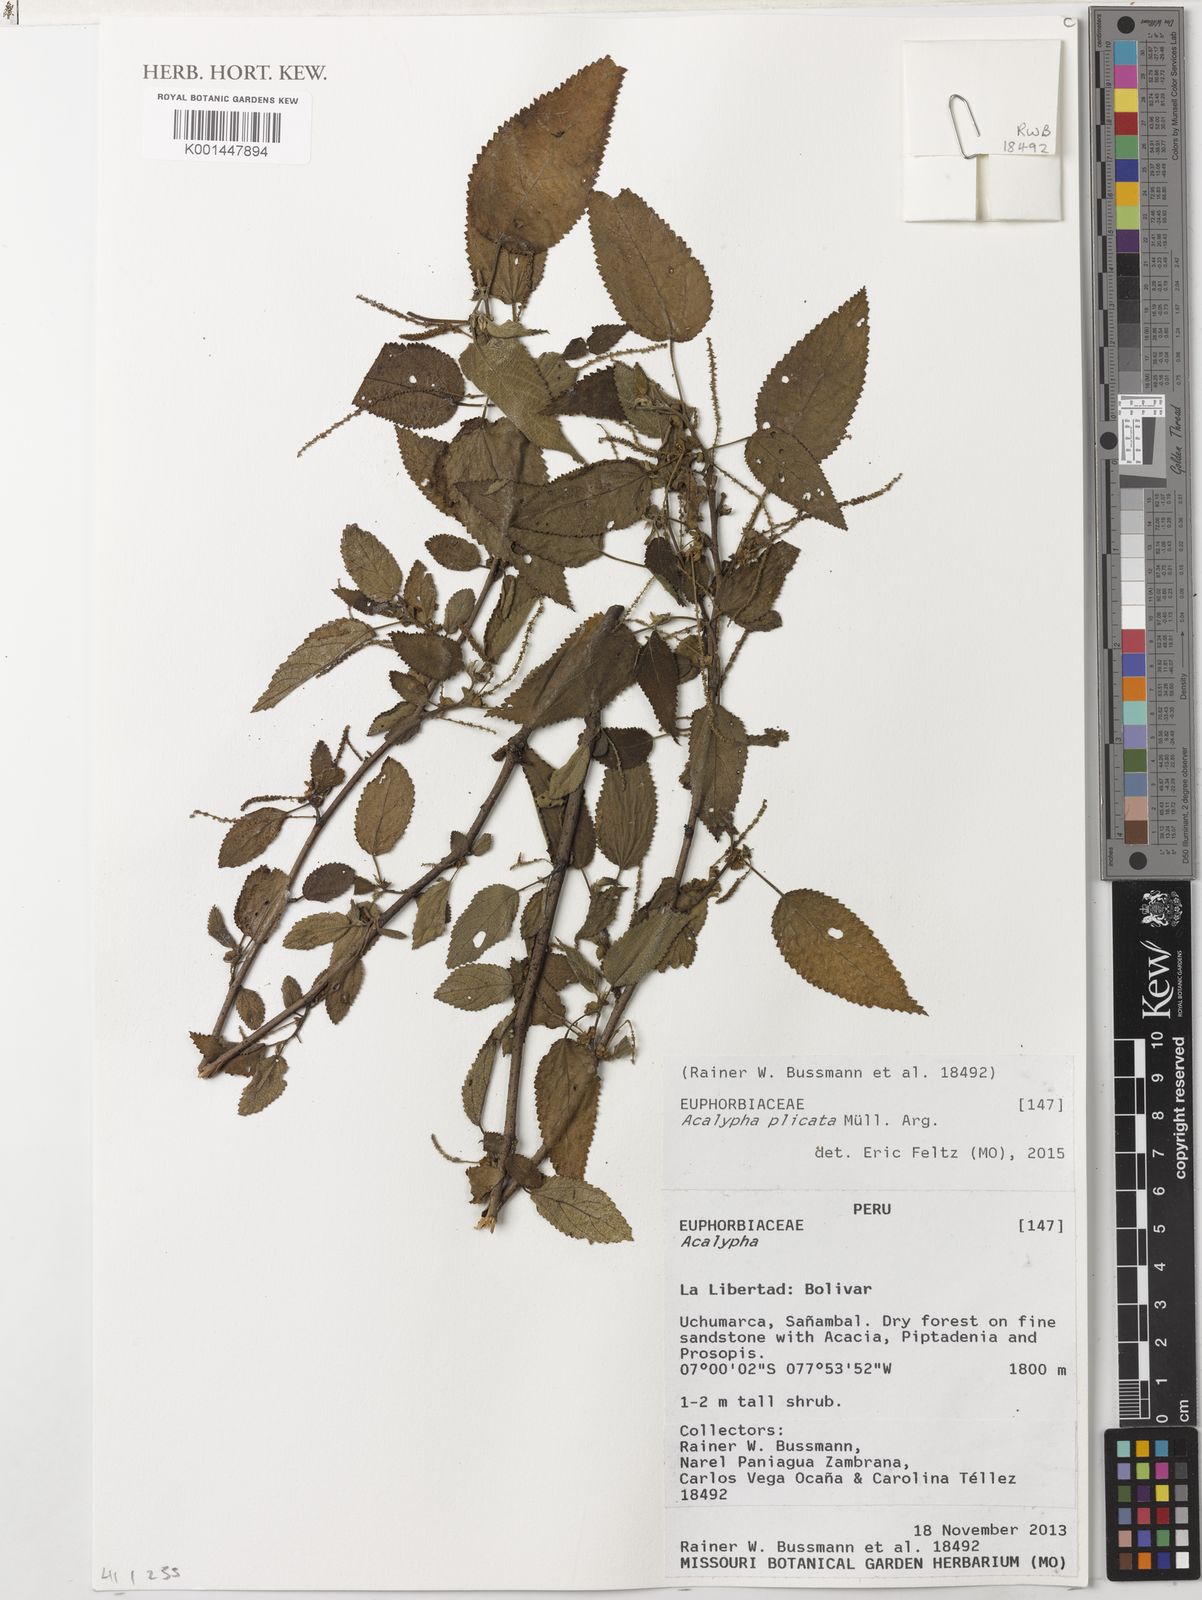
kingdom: Plantae
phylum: Tracheophyta
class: Magnoliopsida
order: Malpighiales
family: Euphorbiaceae
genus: Acalypha
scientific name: Acalypha plicata
